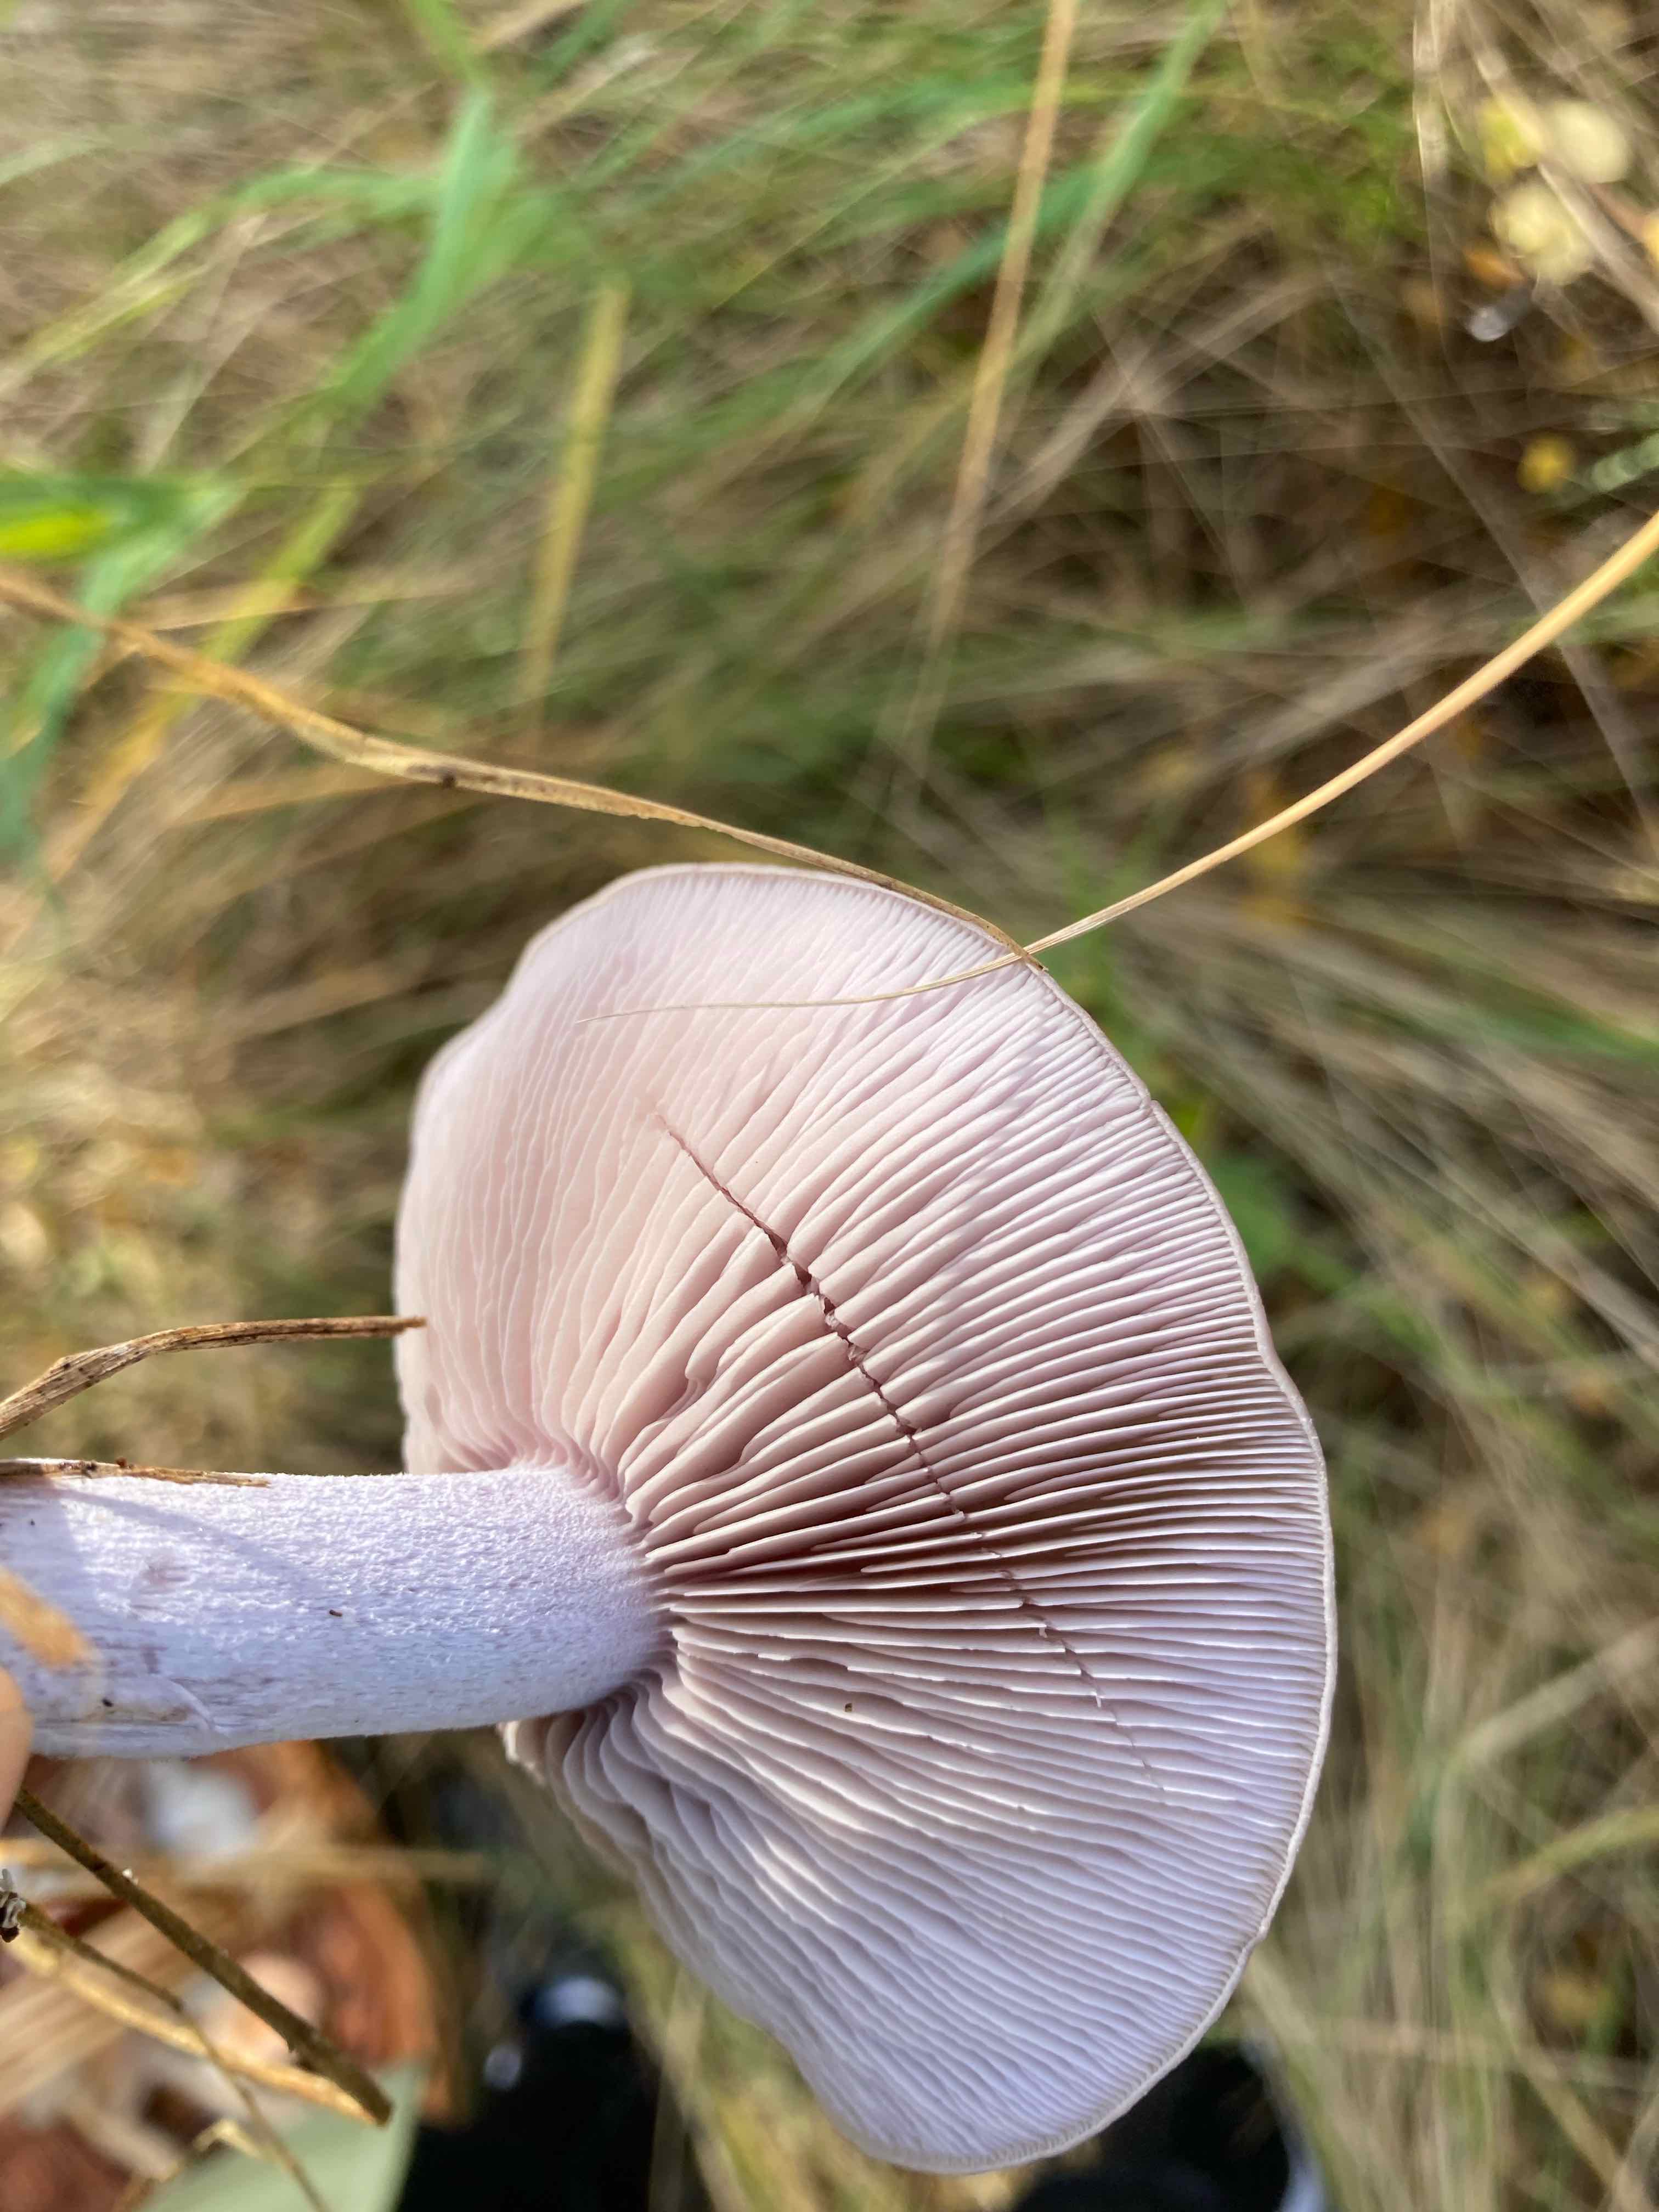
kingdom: Fungi
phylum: Basidiomycota
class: Agaricomycetes
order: Agaricales
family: Tricholomataceae
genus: Lepista
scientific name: Lepista nuda
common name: violet hekseringshat
